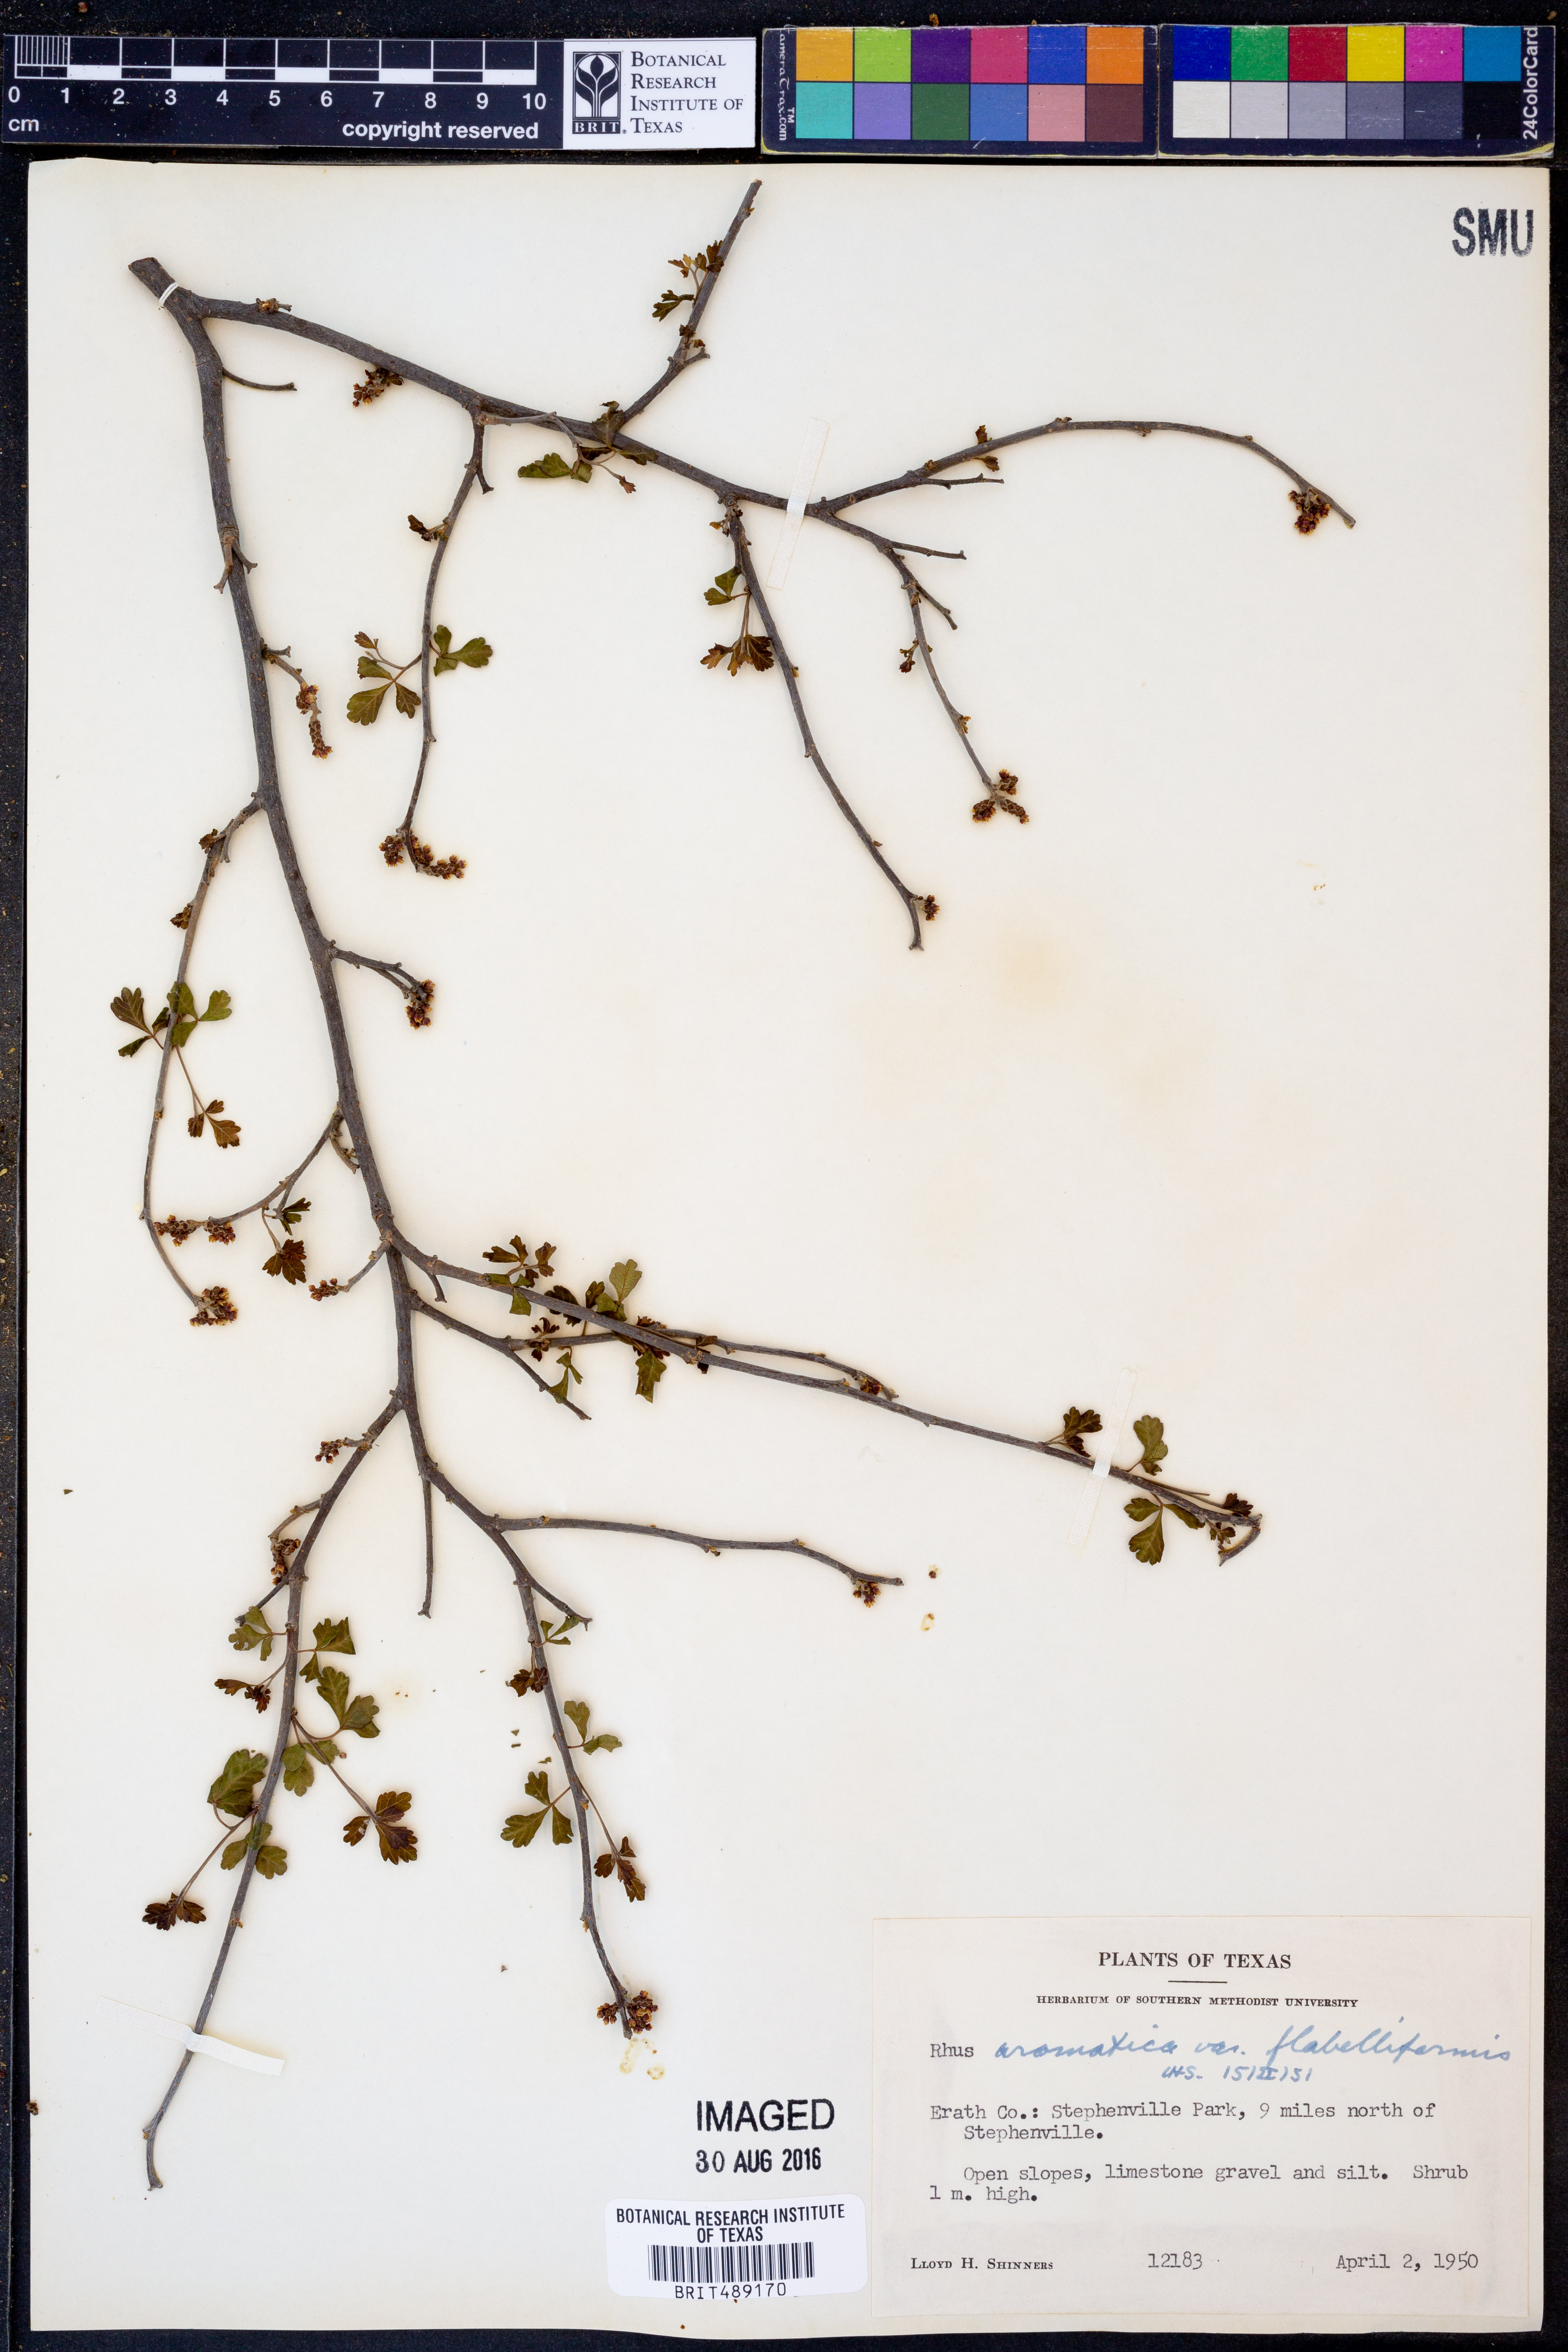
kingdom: Plantae
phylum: Tracheophyta
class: Magnoliopsida
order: Sapindales
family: Anacardiaceae
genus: Rhus
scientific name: Rhus trilobata
